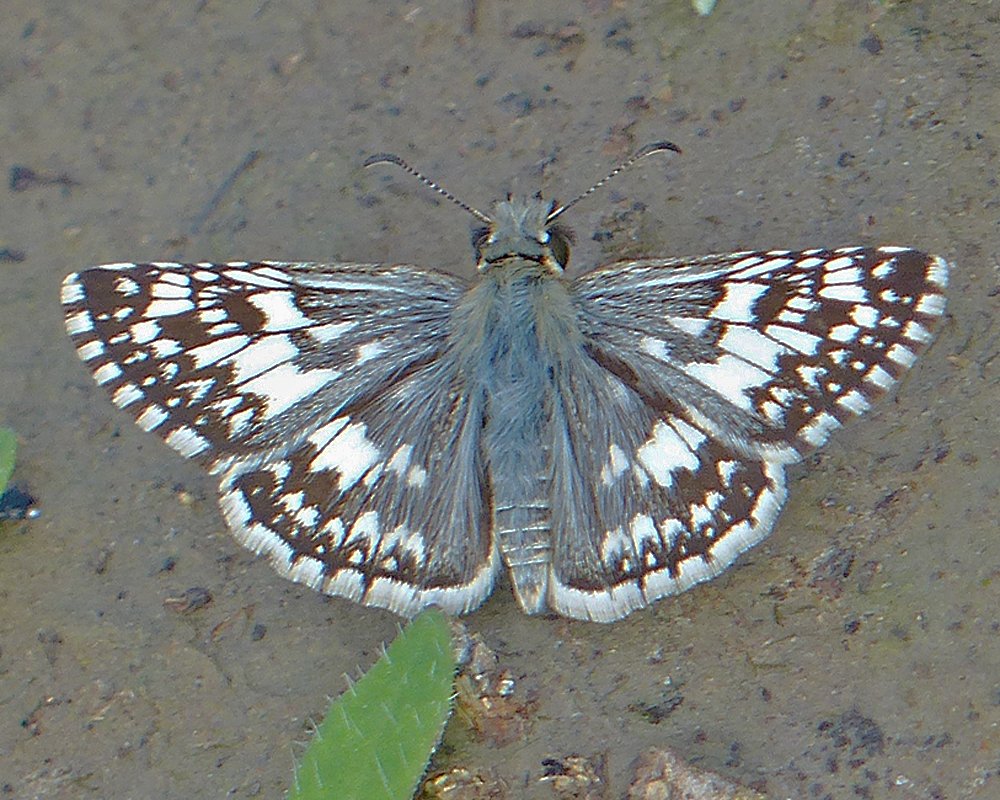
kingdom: Animalia
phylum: Arthropoda
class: Insecta
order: Lepidoptera
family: Hesperiidae
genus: Pyrgus
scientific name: Pyrgus
